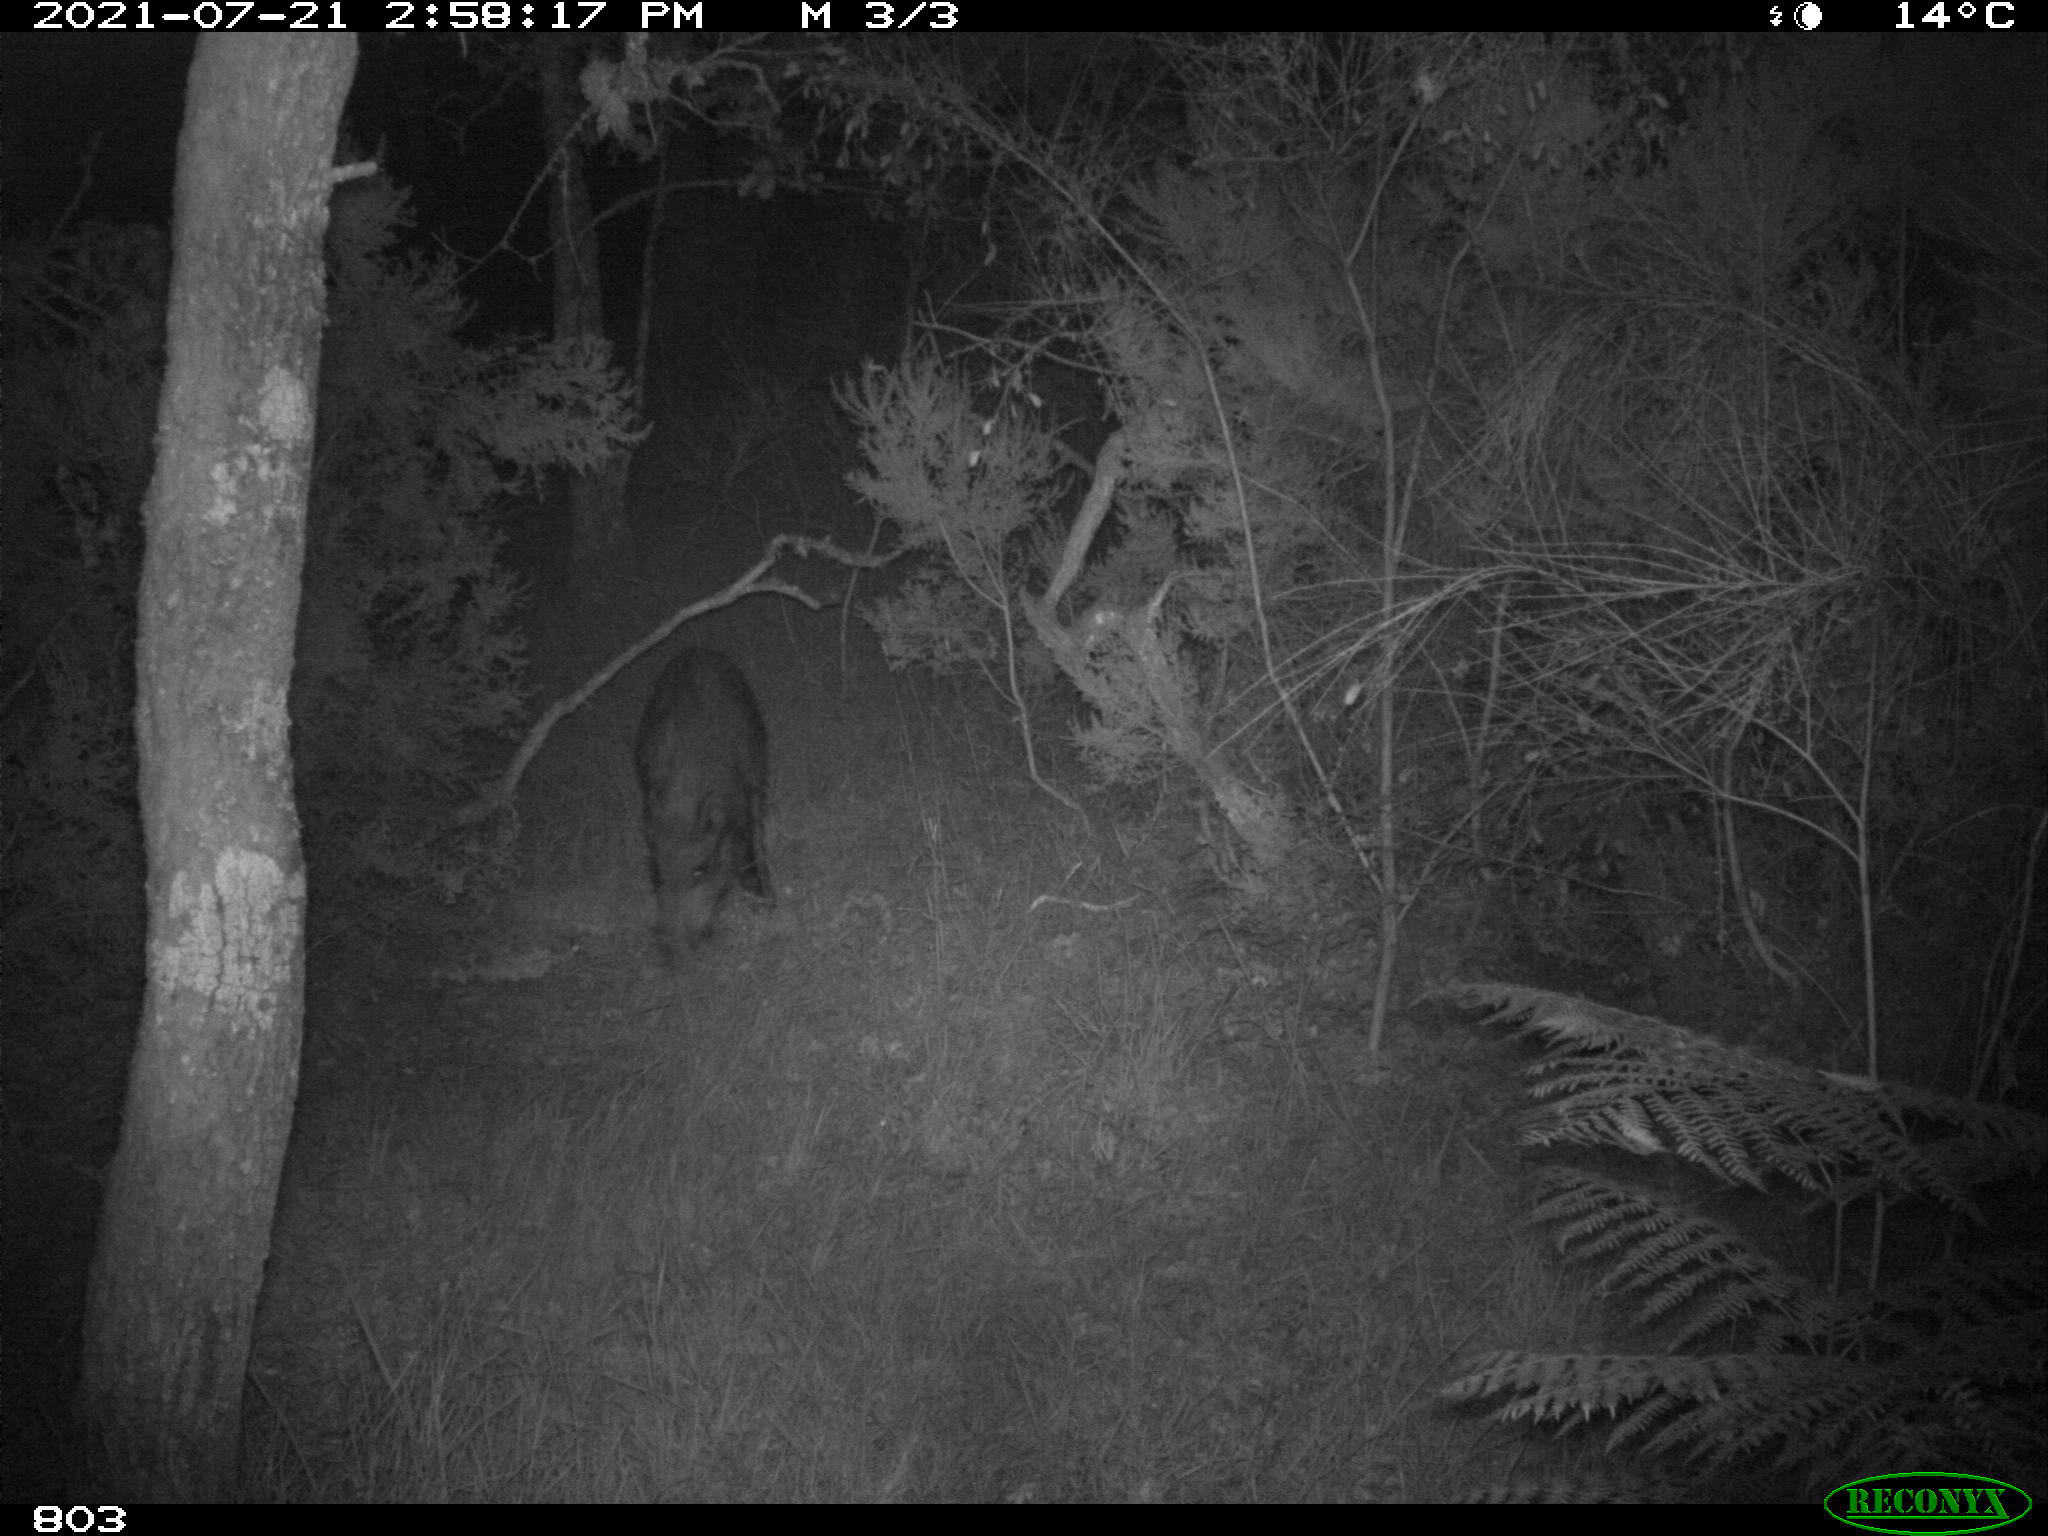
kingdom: Animalia
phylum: Chordata
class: Mammalia
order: Artiodactyla
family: Suidae
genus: Sus
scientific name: Sus scrofa
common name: Wild boar
